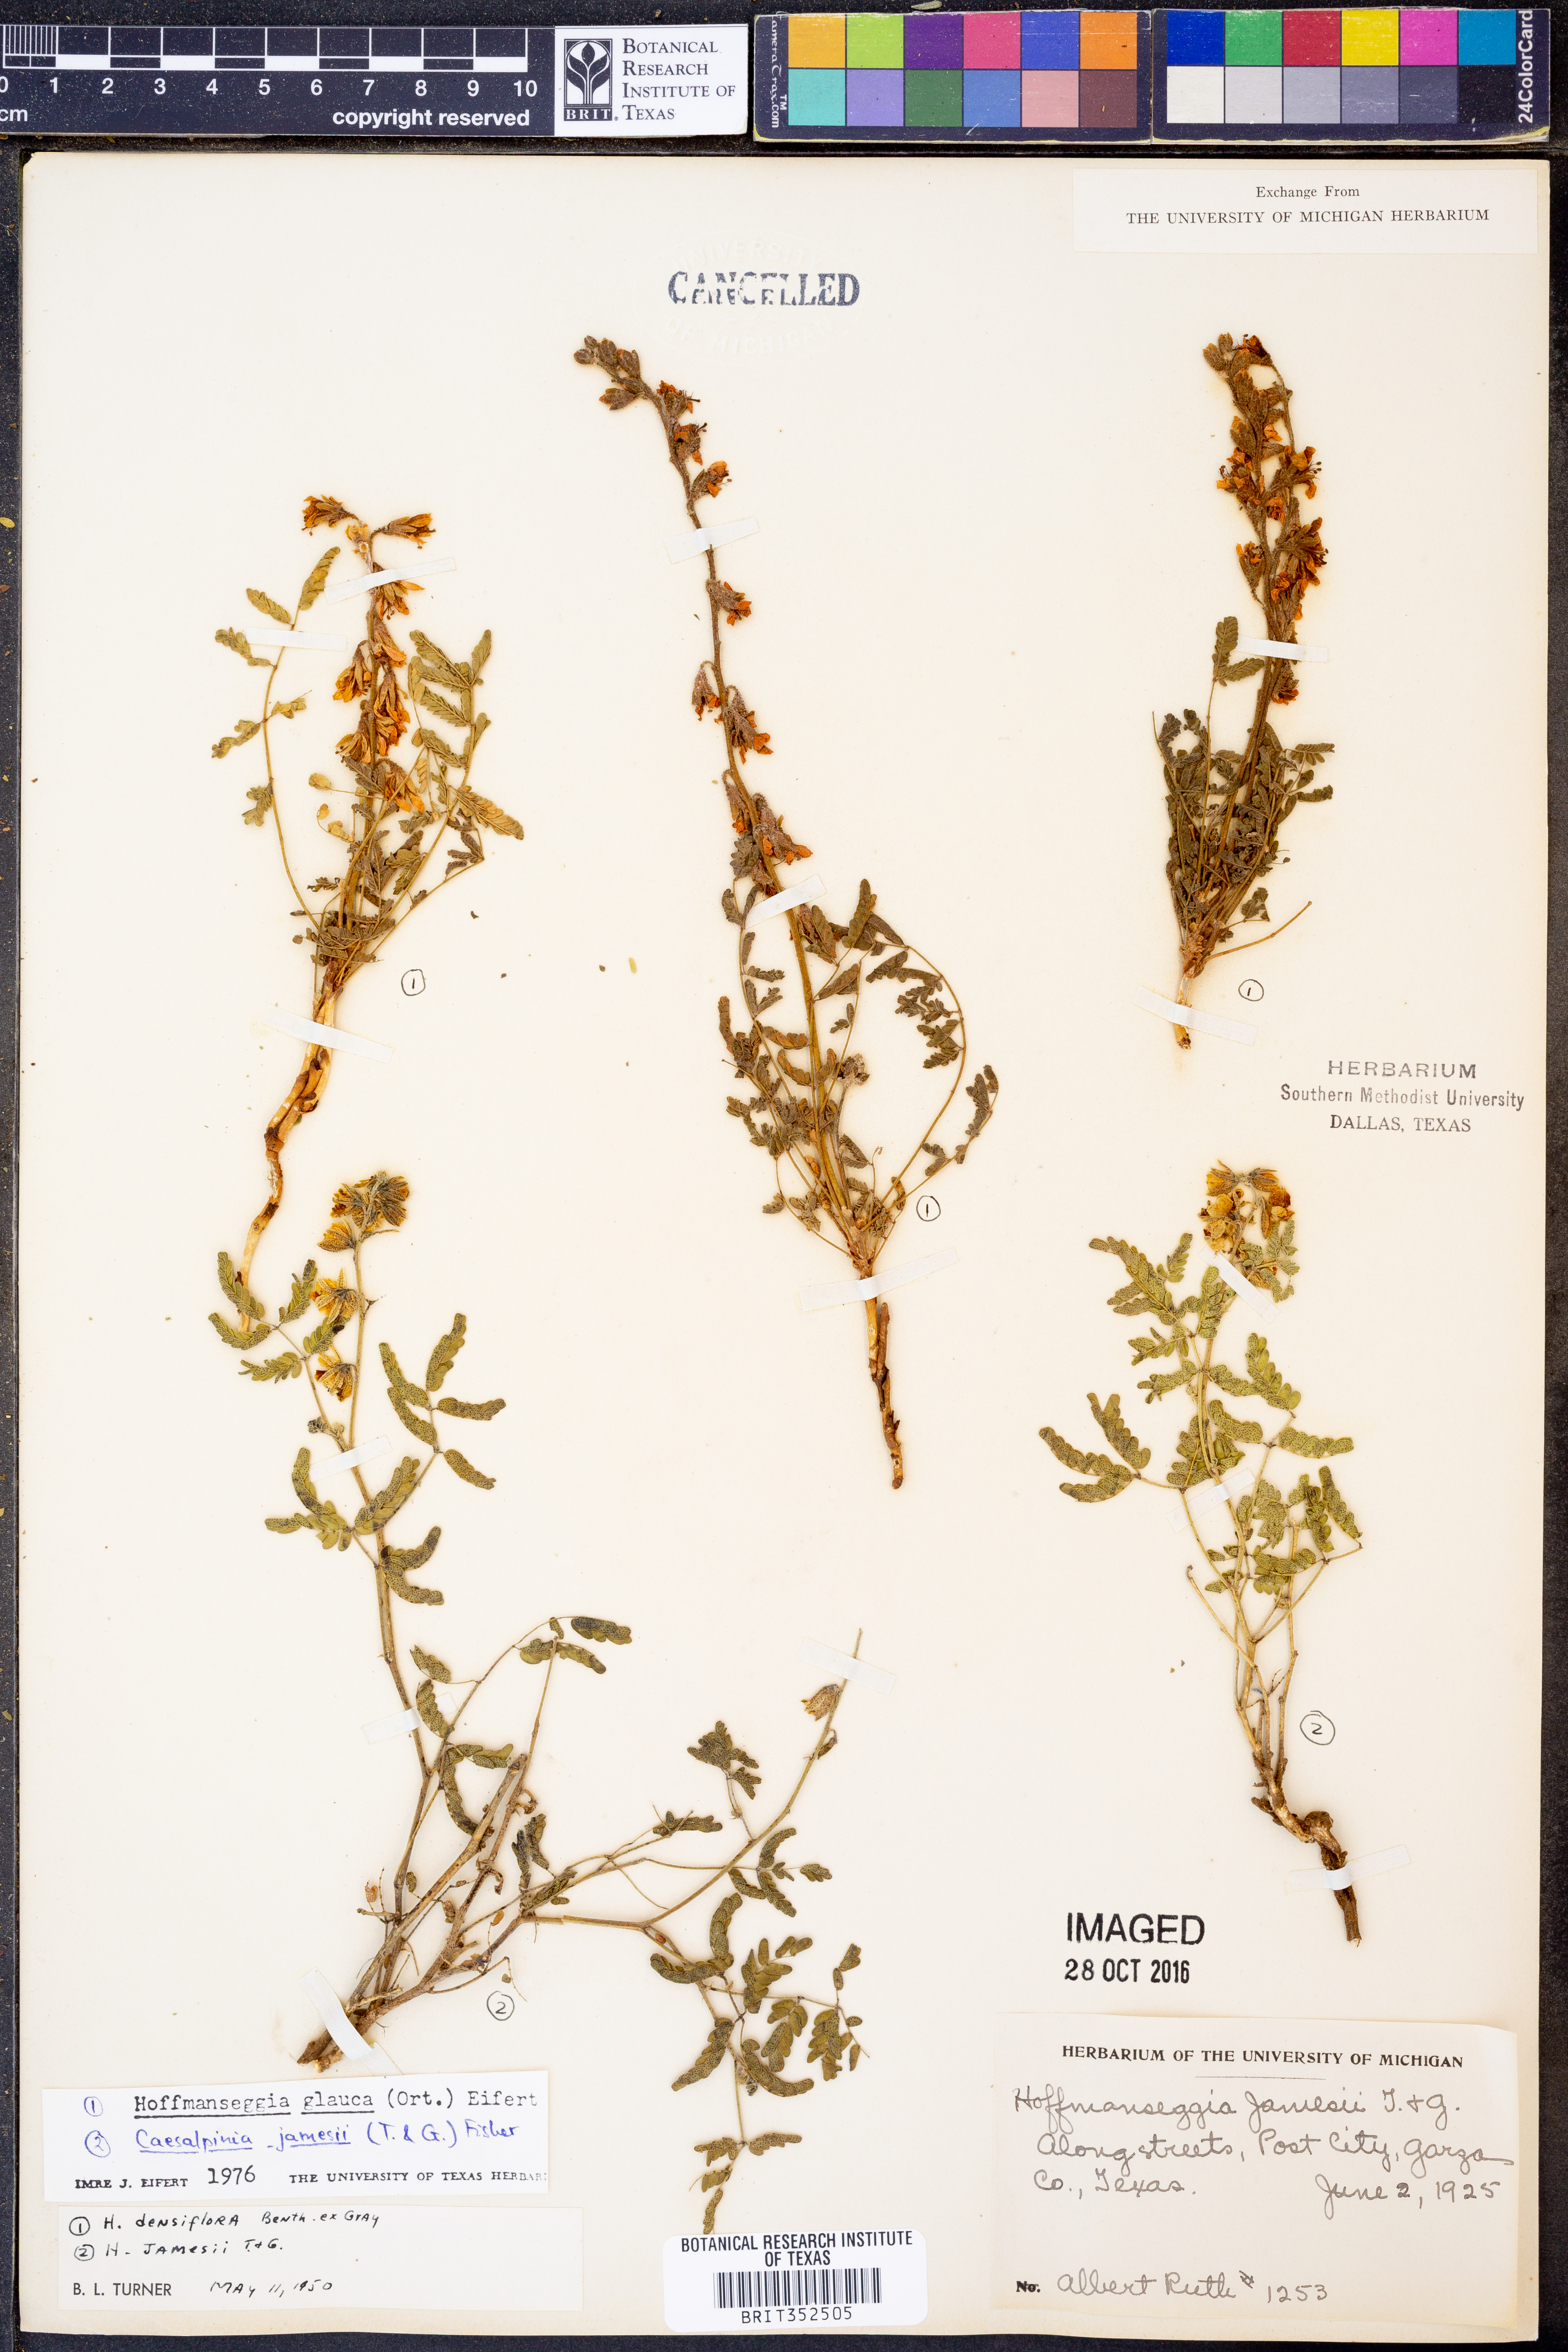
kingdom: Plantae
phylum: Tracheophyta
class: Magnoliopsida
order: Fabales
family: Fabaceae
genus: Hoffmannseggia
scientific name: Hoffmannseggia glauca
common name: Pignut
